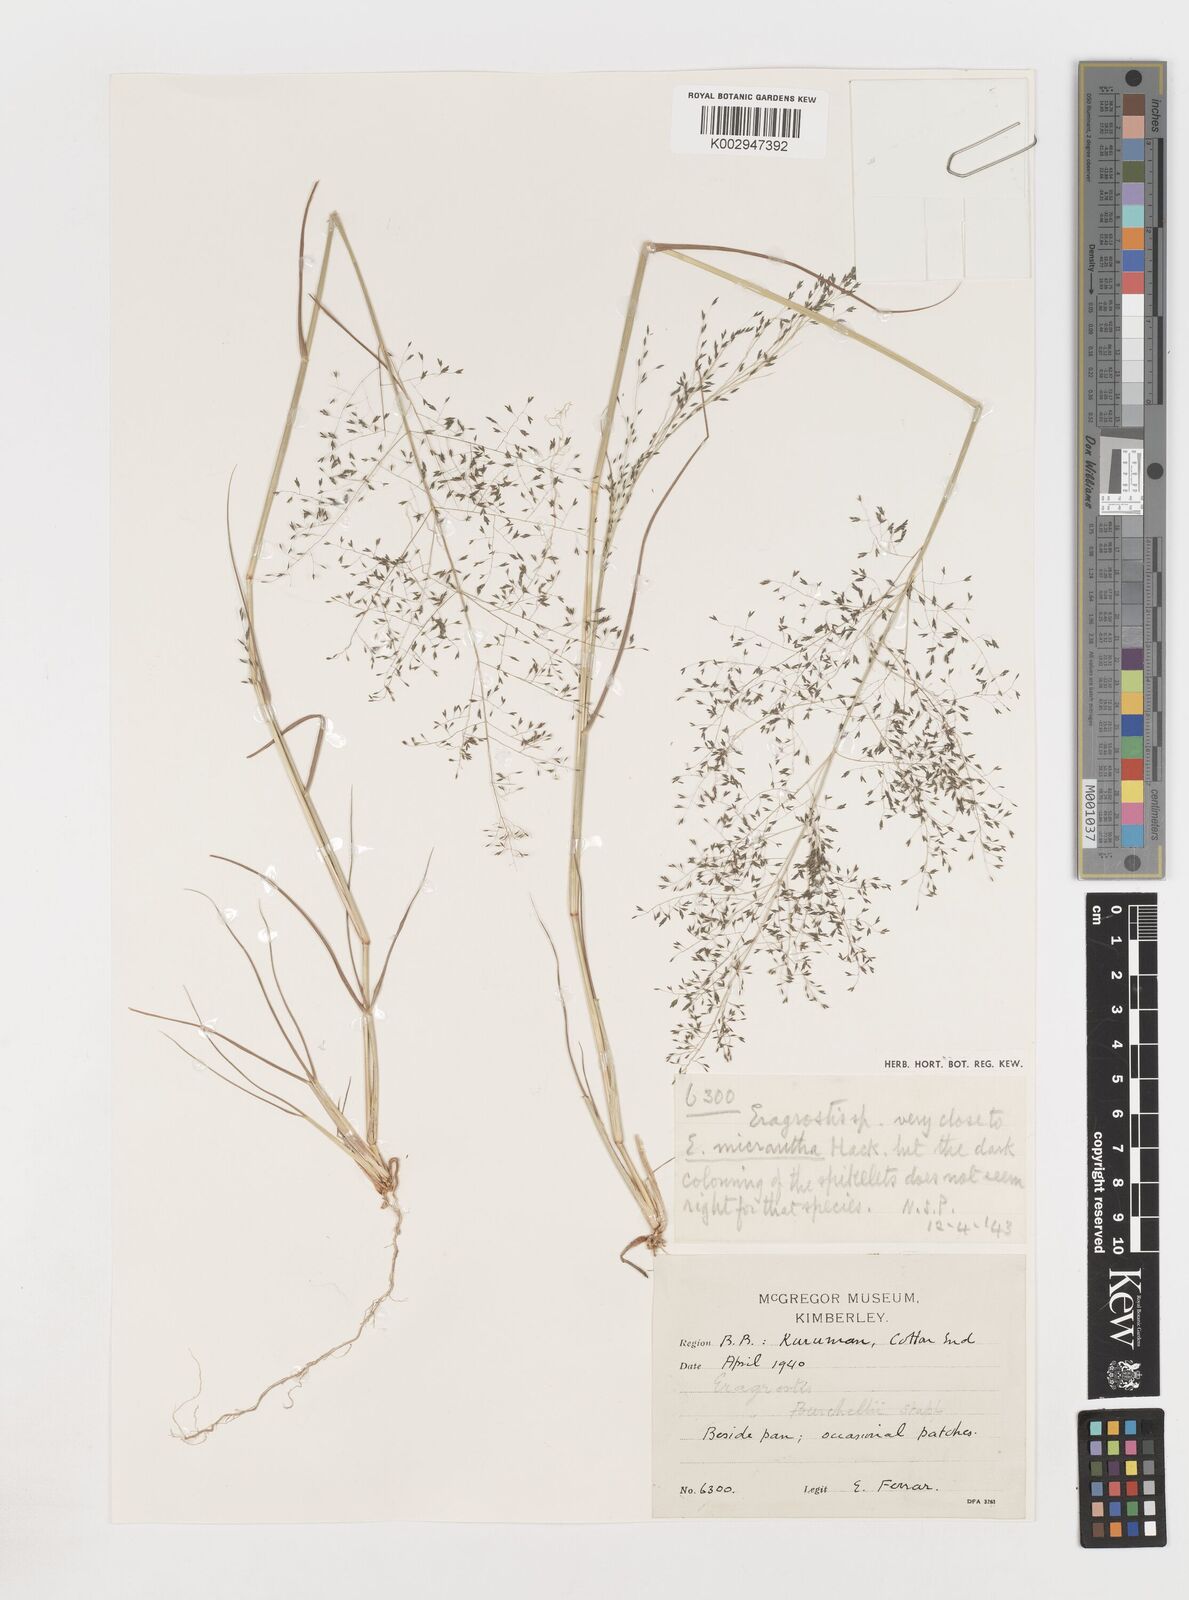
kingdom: Plantae
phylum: Tracheophyta
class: Liliopsida
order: Poales
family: Poaceae
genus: Eragrostis
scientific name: Eragrostis
